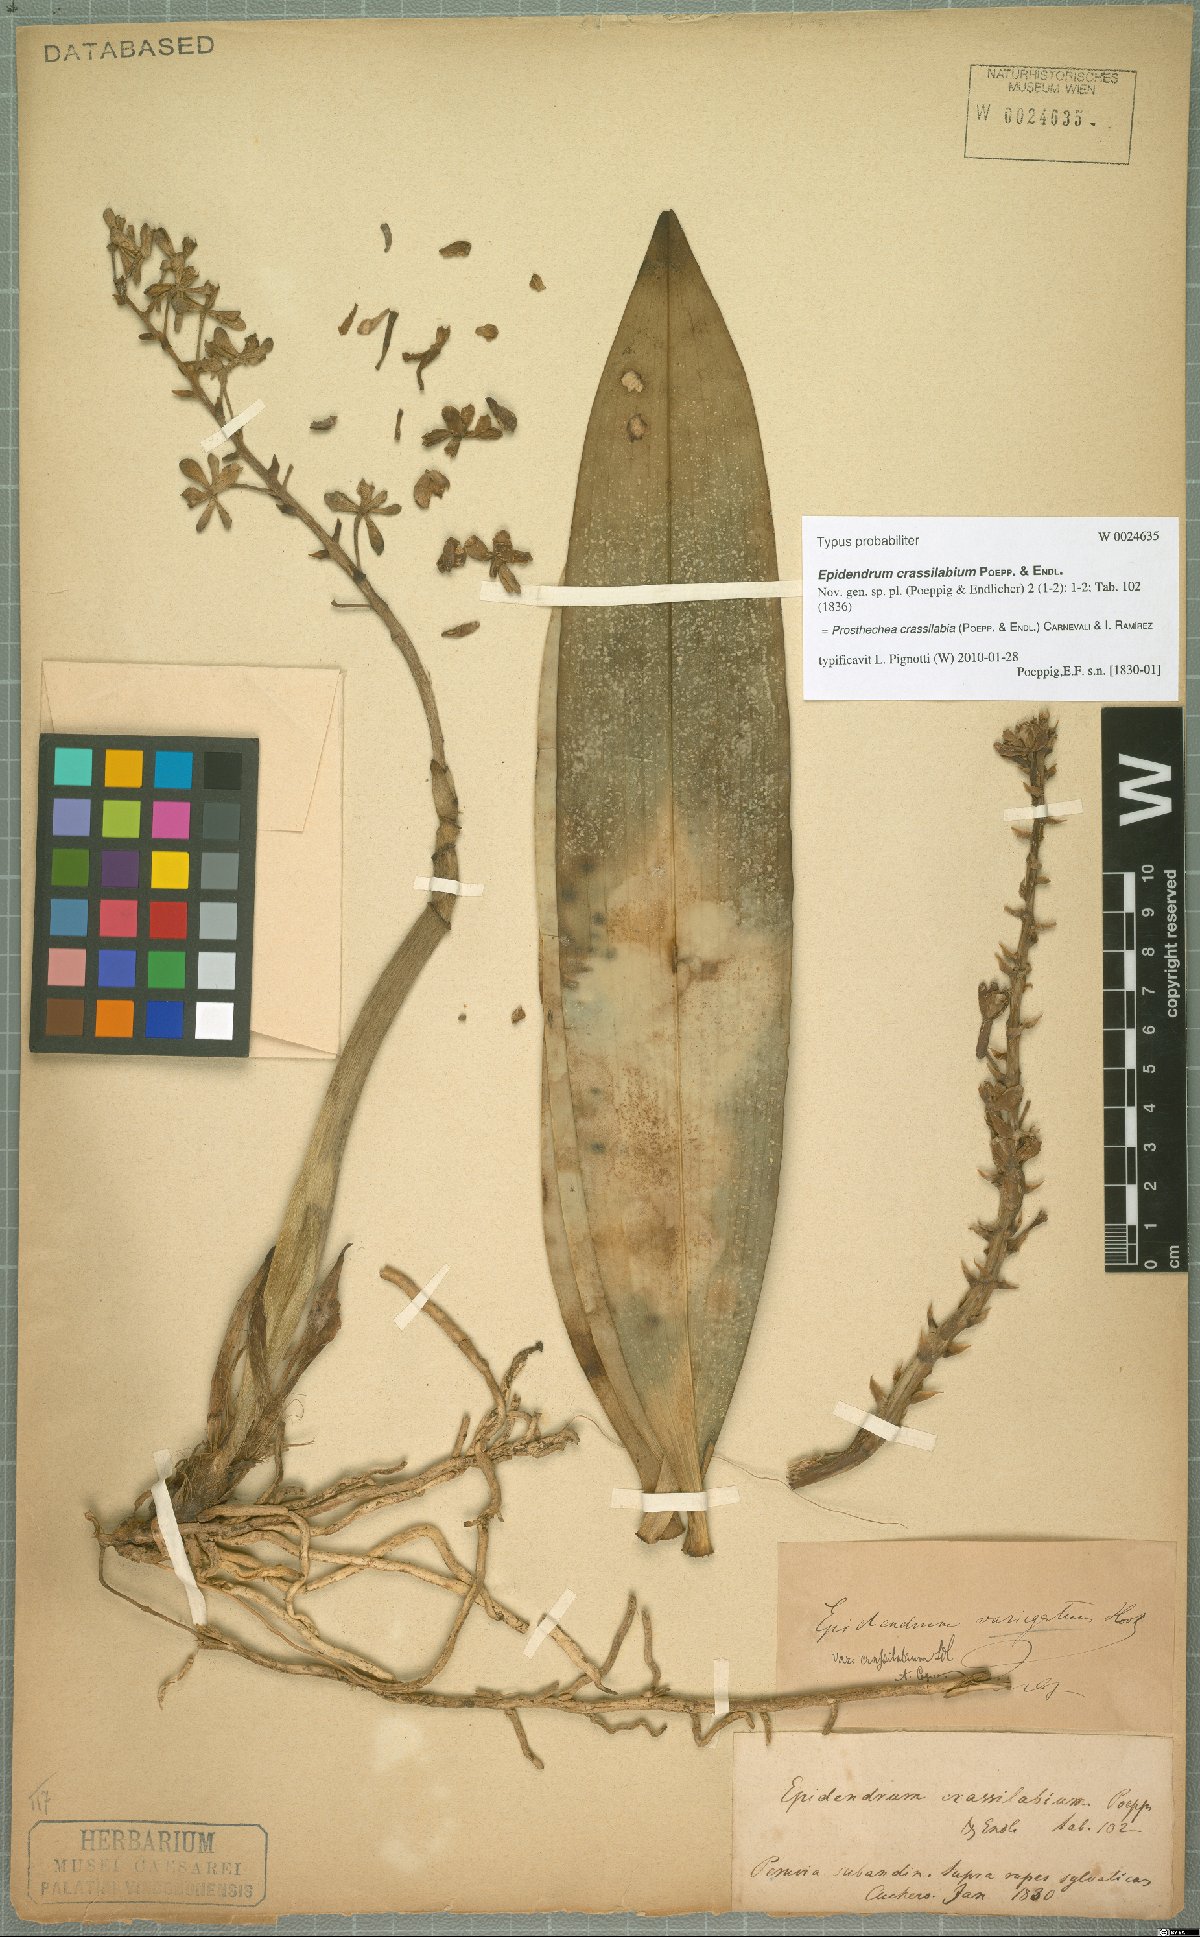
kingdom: Plantae
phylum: Tracheophyta
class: Liliopsida
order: Asparagales
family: Orchidaceae
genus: Prosthechea
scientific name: Prosthechea crassilabia
